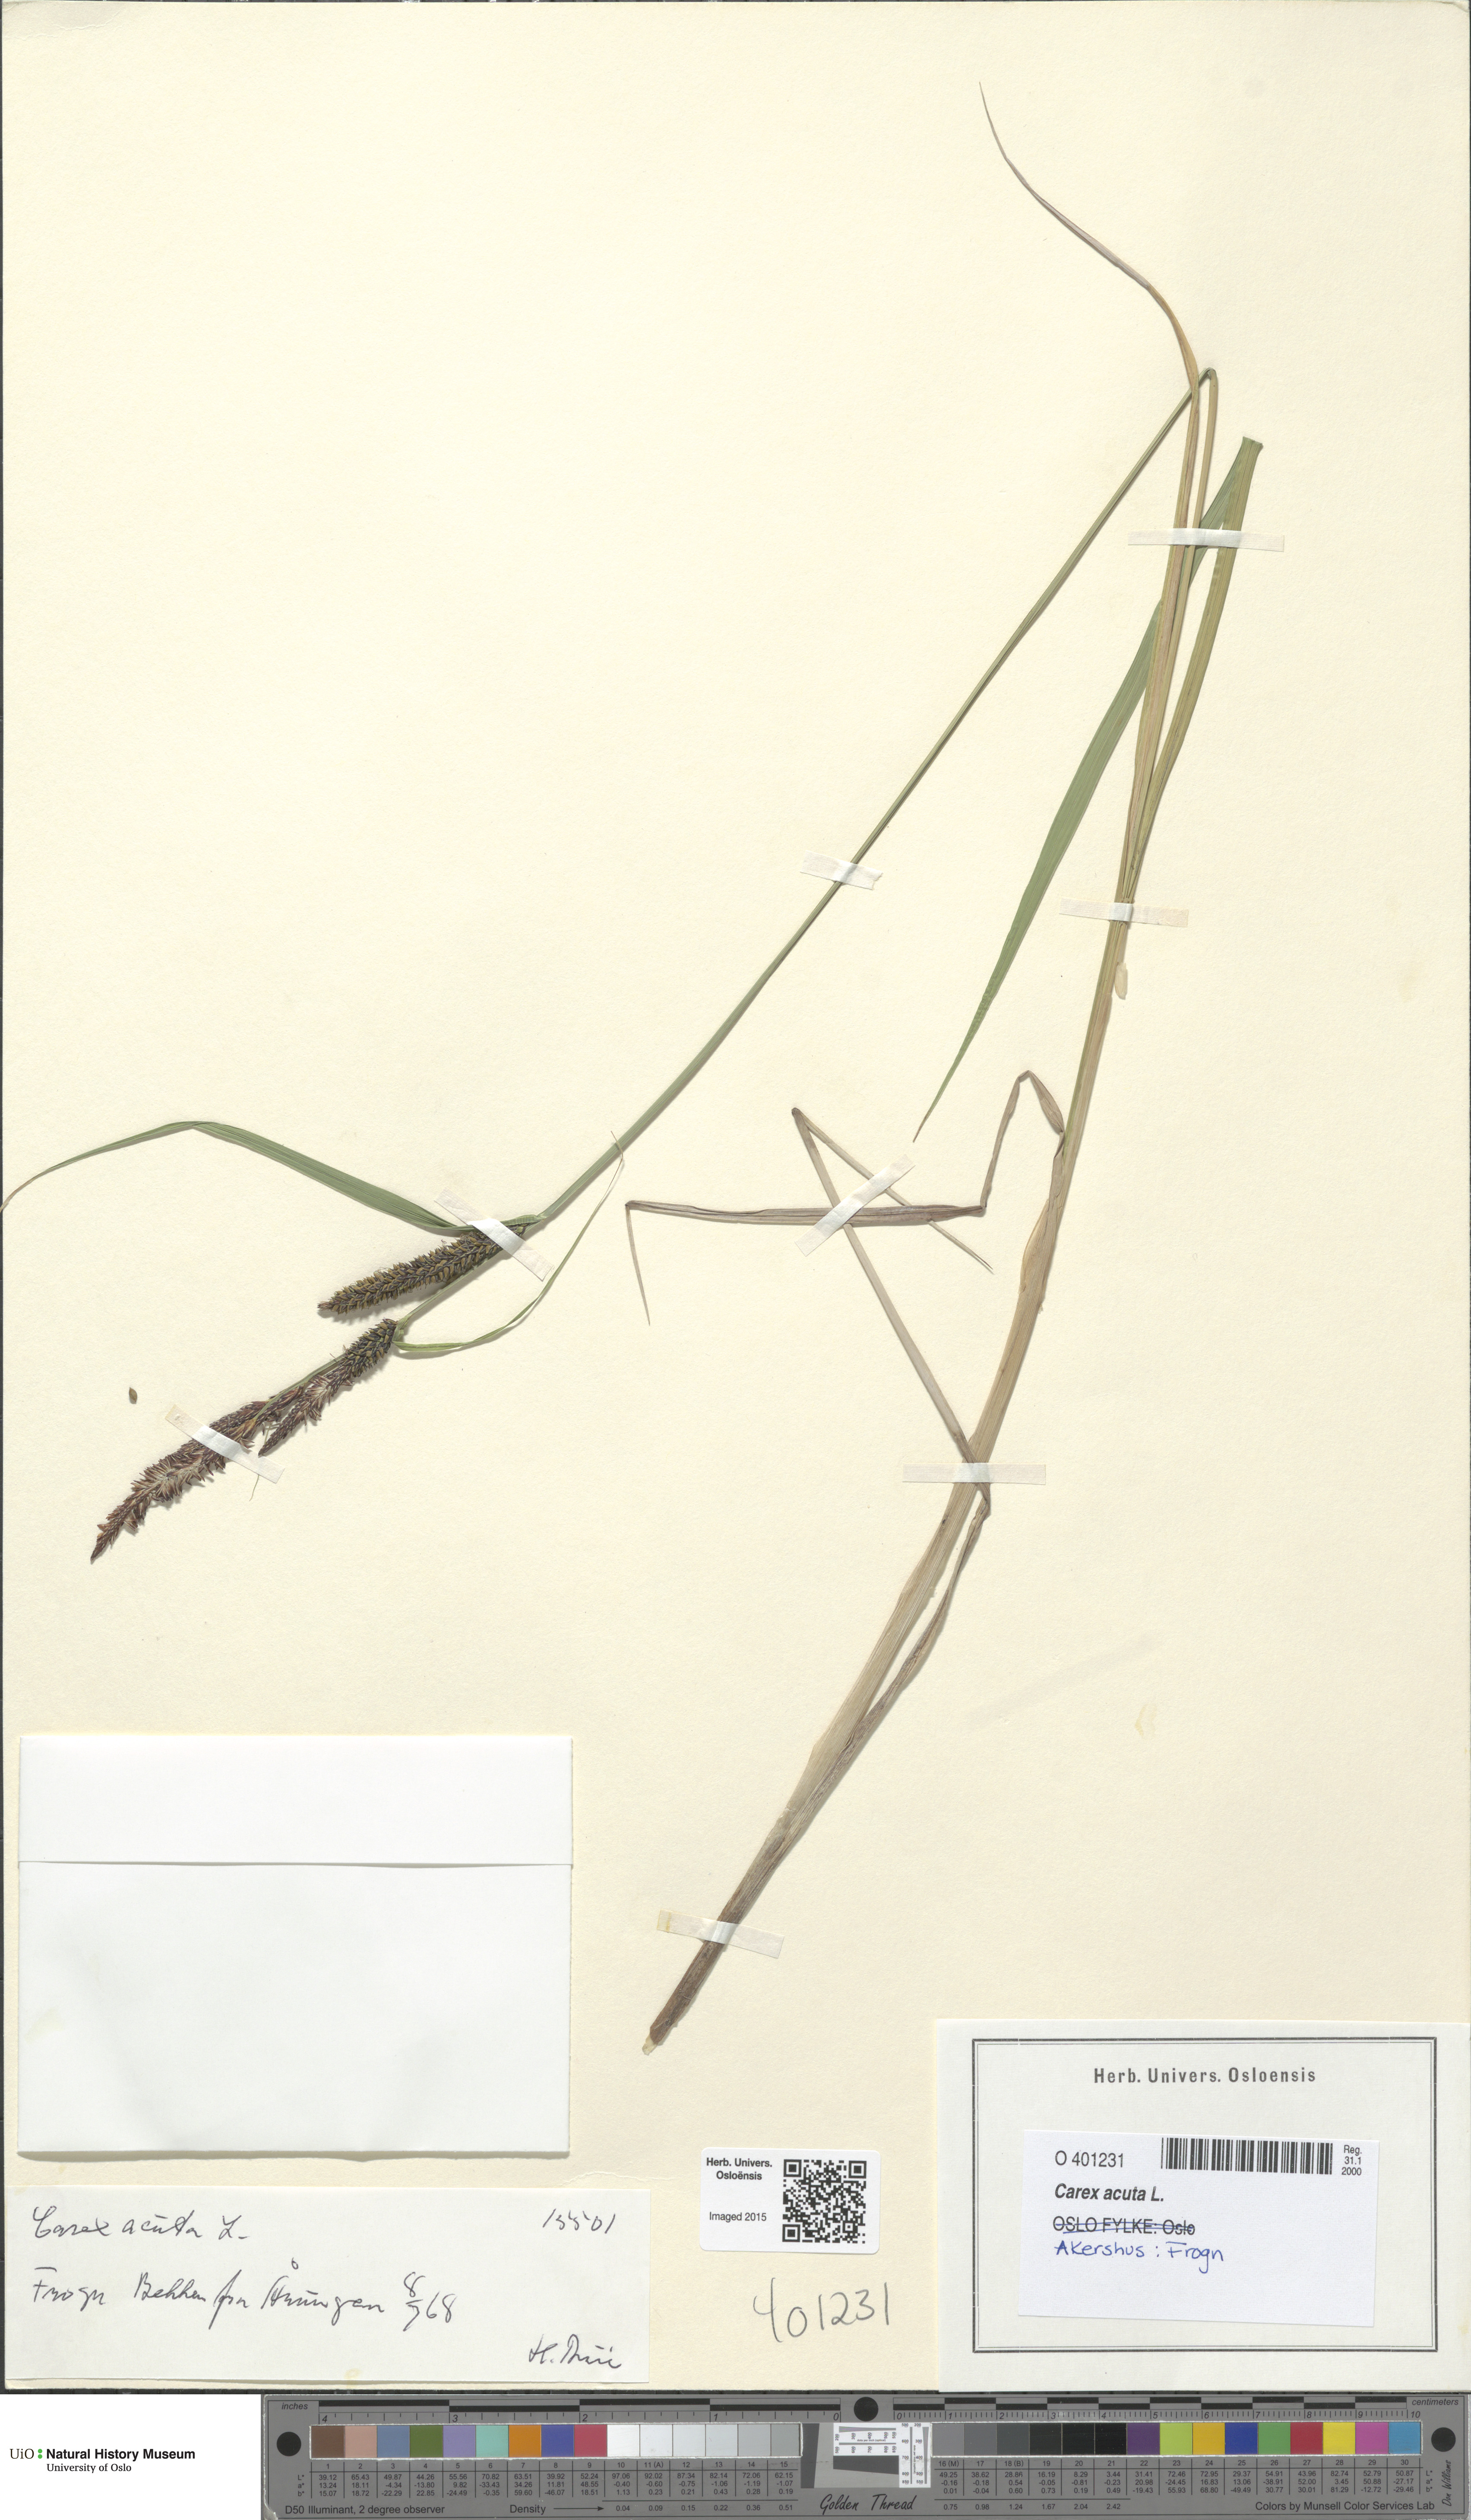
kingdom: Plantae
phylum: Tracheophyta
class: Liliopsida
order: Poales
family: Cyperaceae
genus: Carex
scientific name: Carex acuta
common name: Slender tufted-sedge
